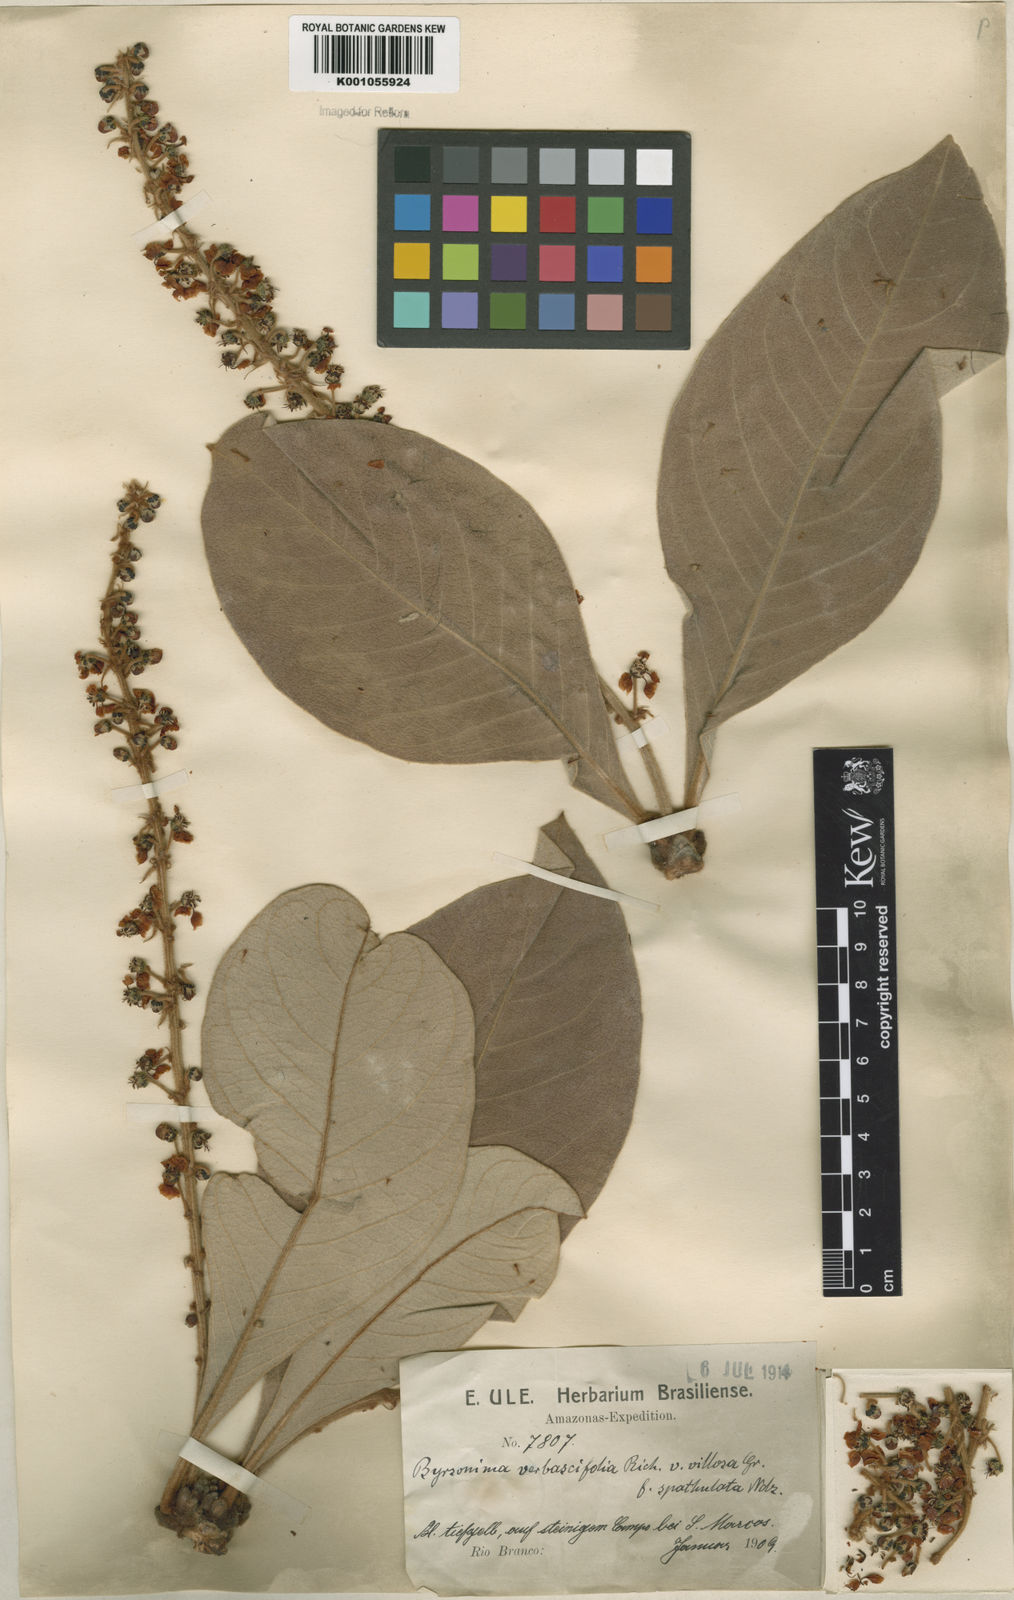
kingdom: Plantae
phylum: Tracheophyta
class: Magnoliopsida
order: Malpighiales
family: Malpighiaceae
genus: Byrsonima
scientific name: Byrsonima verbascifolia
